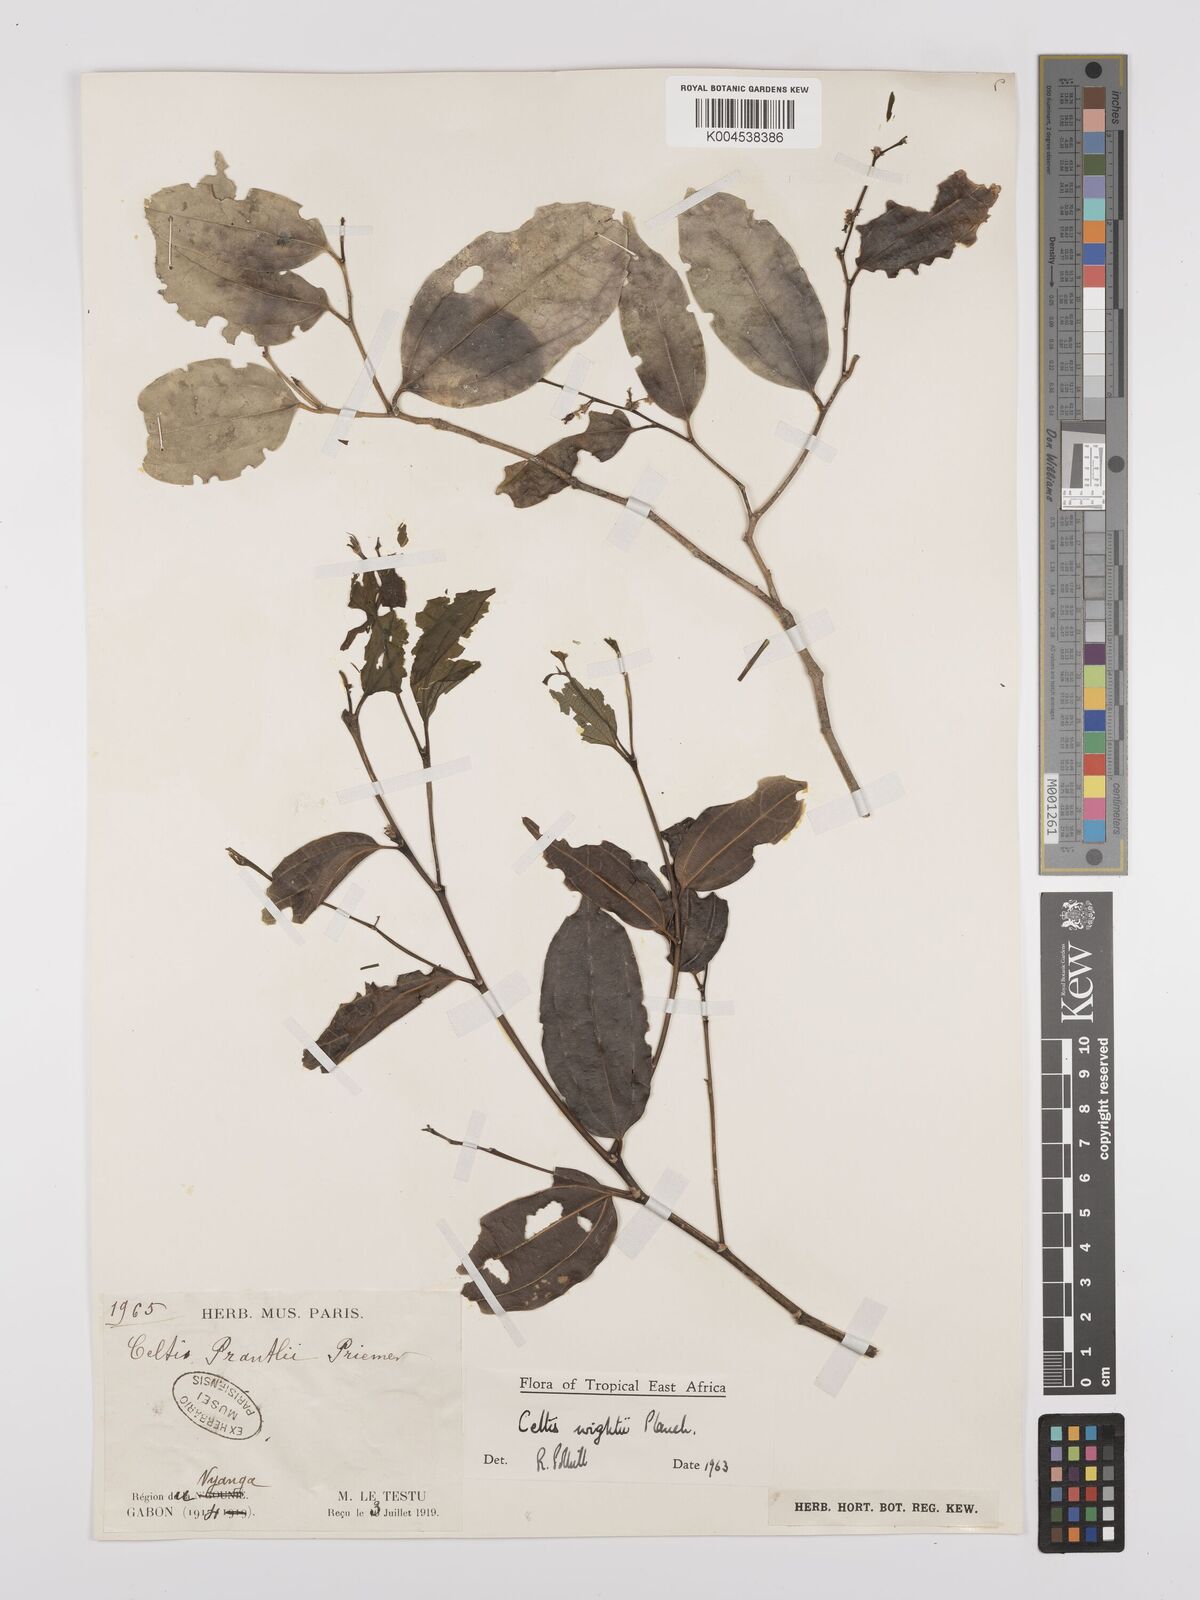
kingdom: Plantae
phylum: Tracheophyta
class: Magnoliopsida
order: Rosales
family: Cannabaceae
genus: Celtis
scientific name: Celtis philippensis
